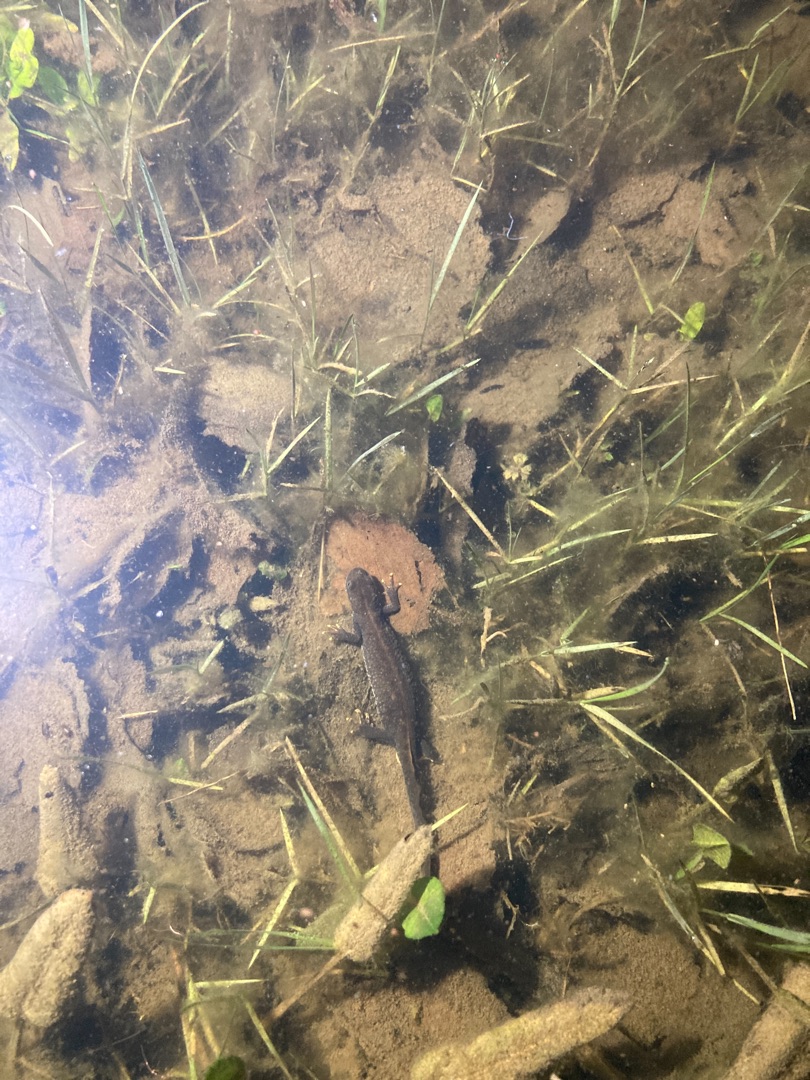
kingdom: Animalia
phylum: Chordata
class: Amphibia
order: Caudata
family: Salamandridae
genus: Triturus
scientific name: Triturus cristatus
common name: Stor vandsalamander
